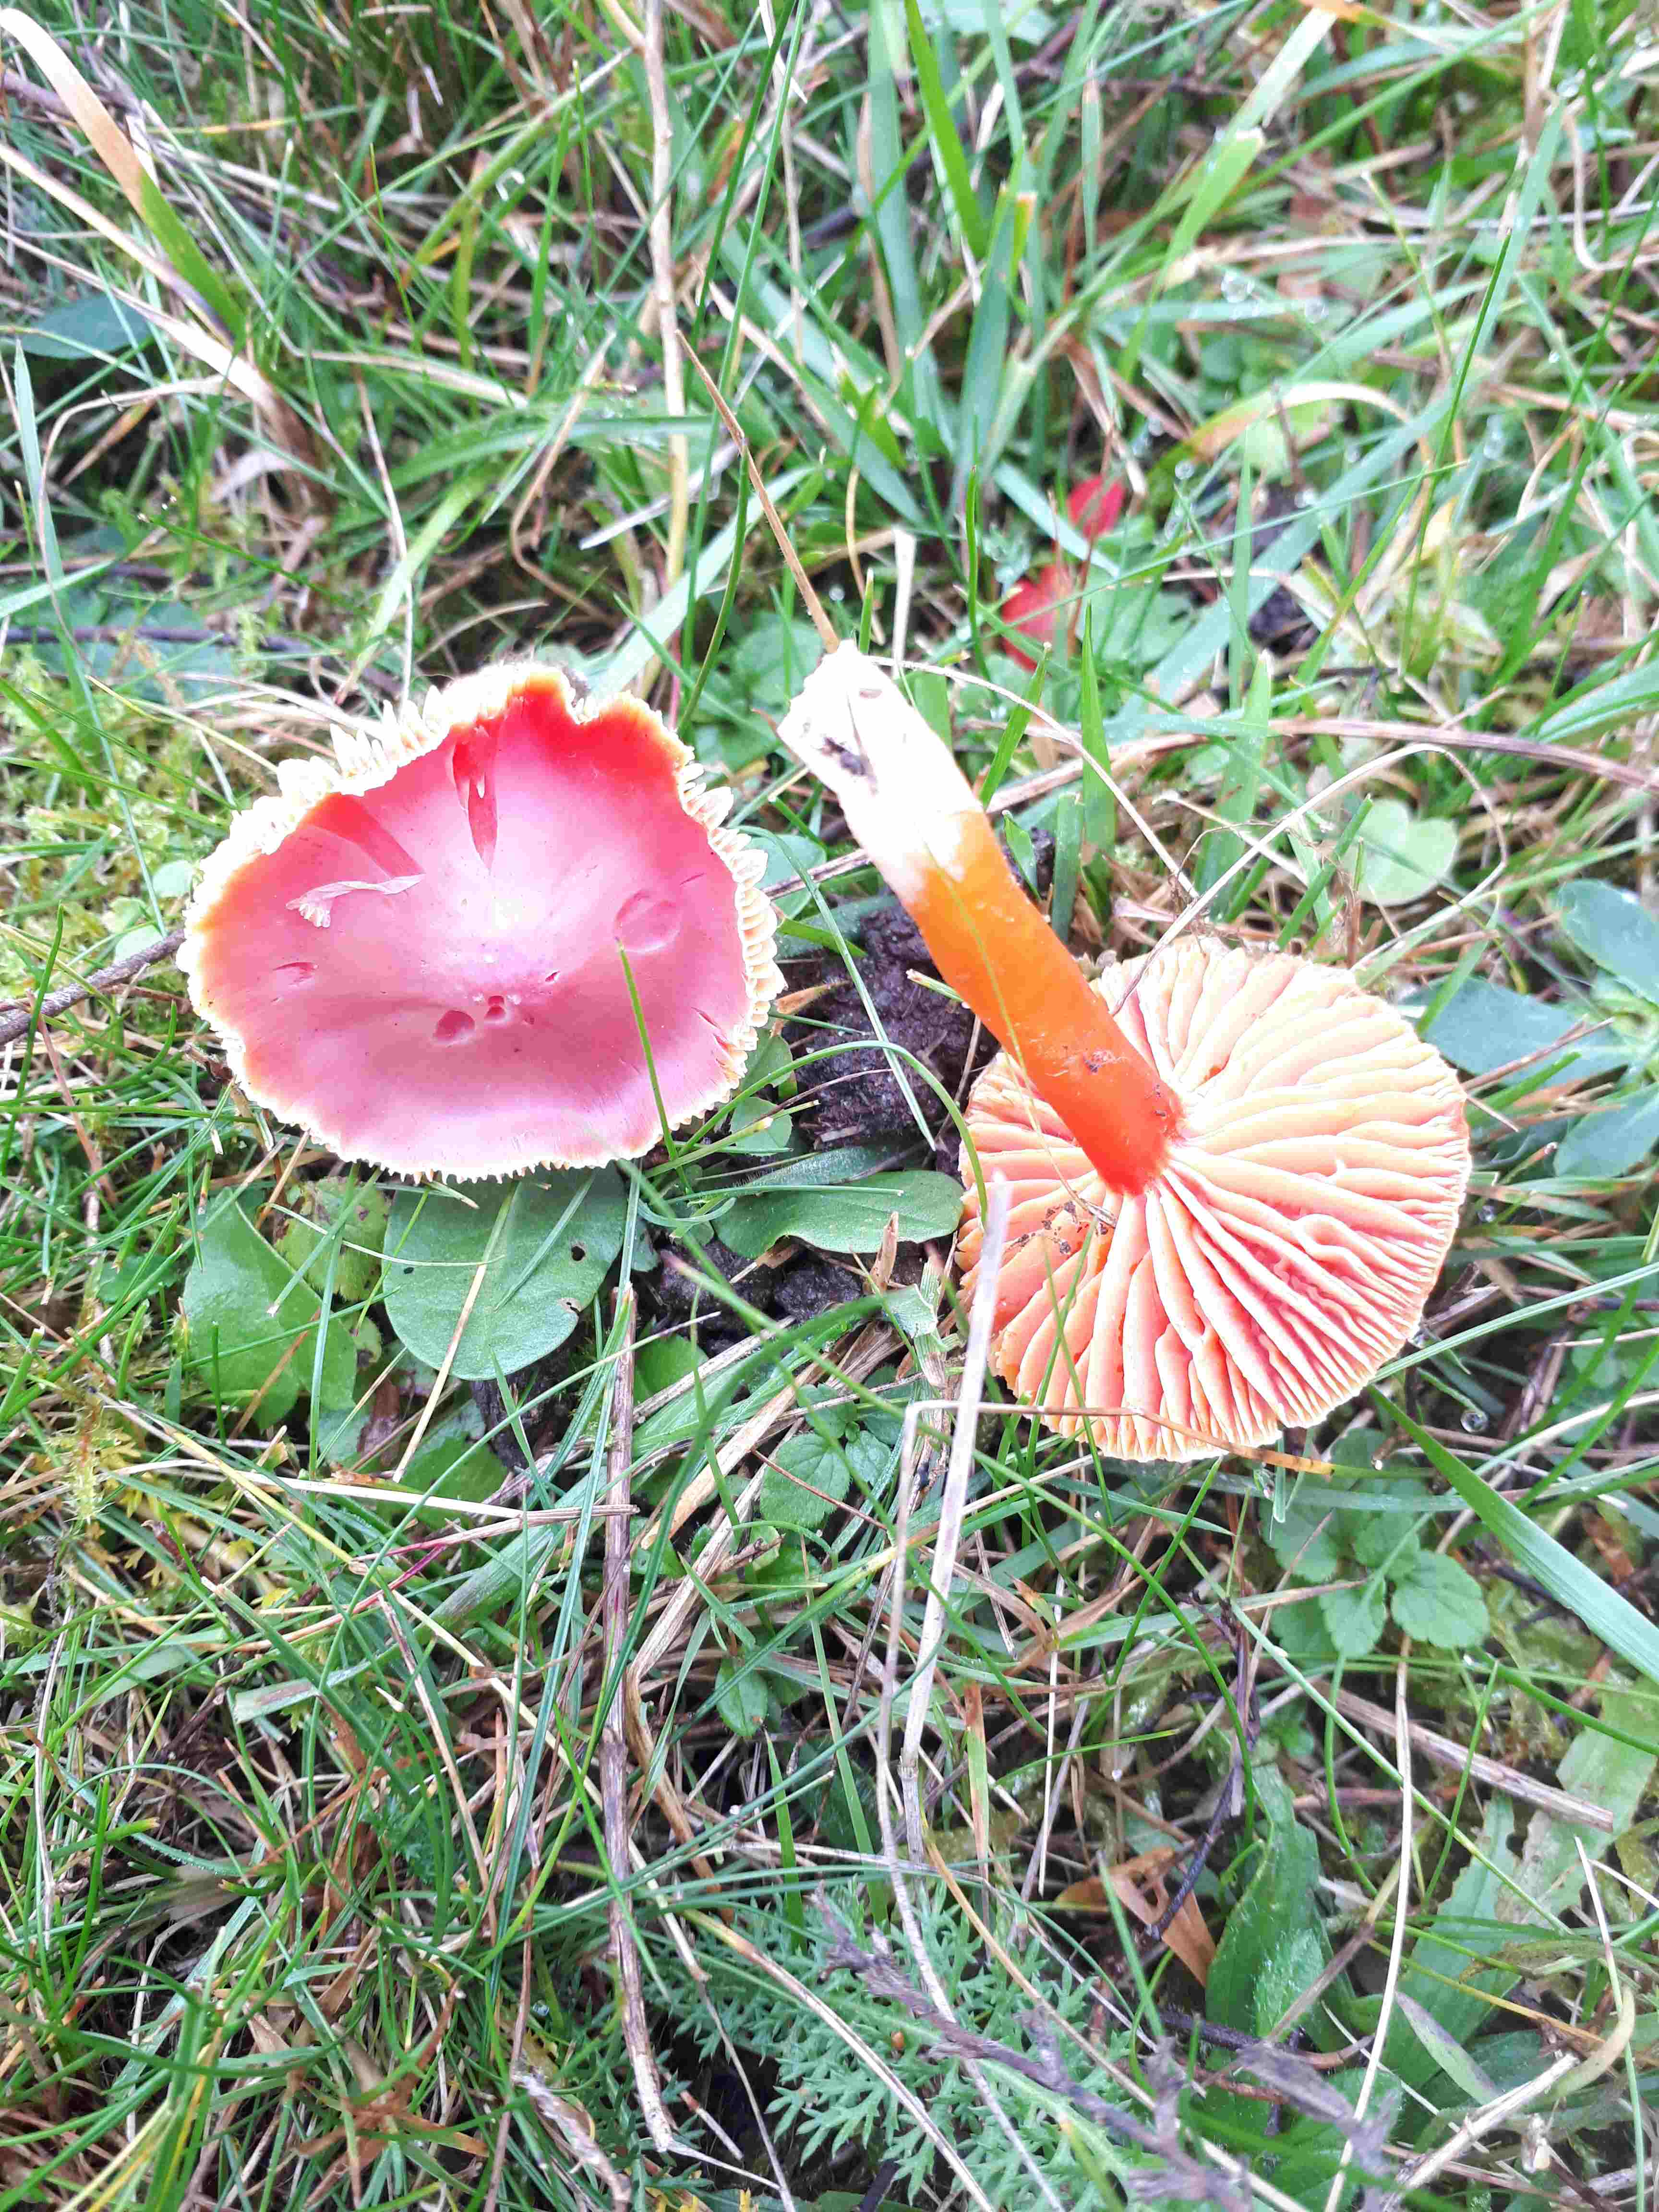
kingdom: Fungi
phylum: Basidiomycota
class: Agaricomycetes
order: Agaricales
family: Hygrophoraceae
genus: Hygrocybe
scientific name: Hygrocybe coccinea
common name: cinnober-vokshat
